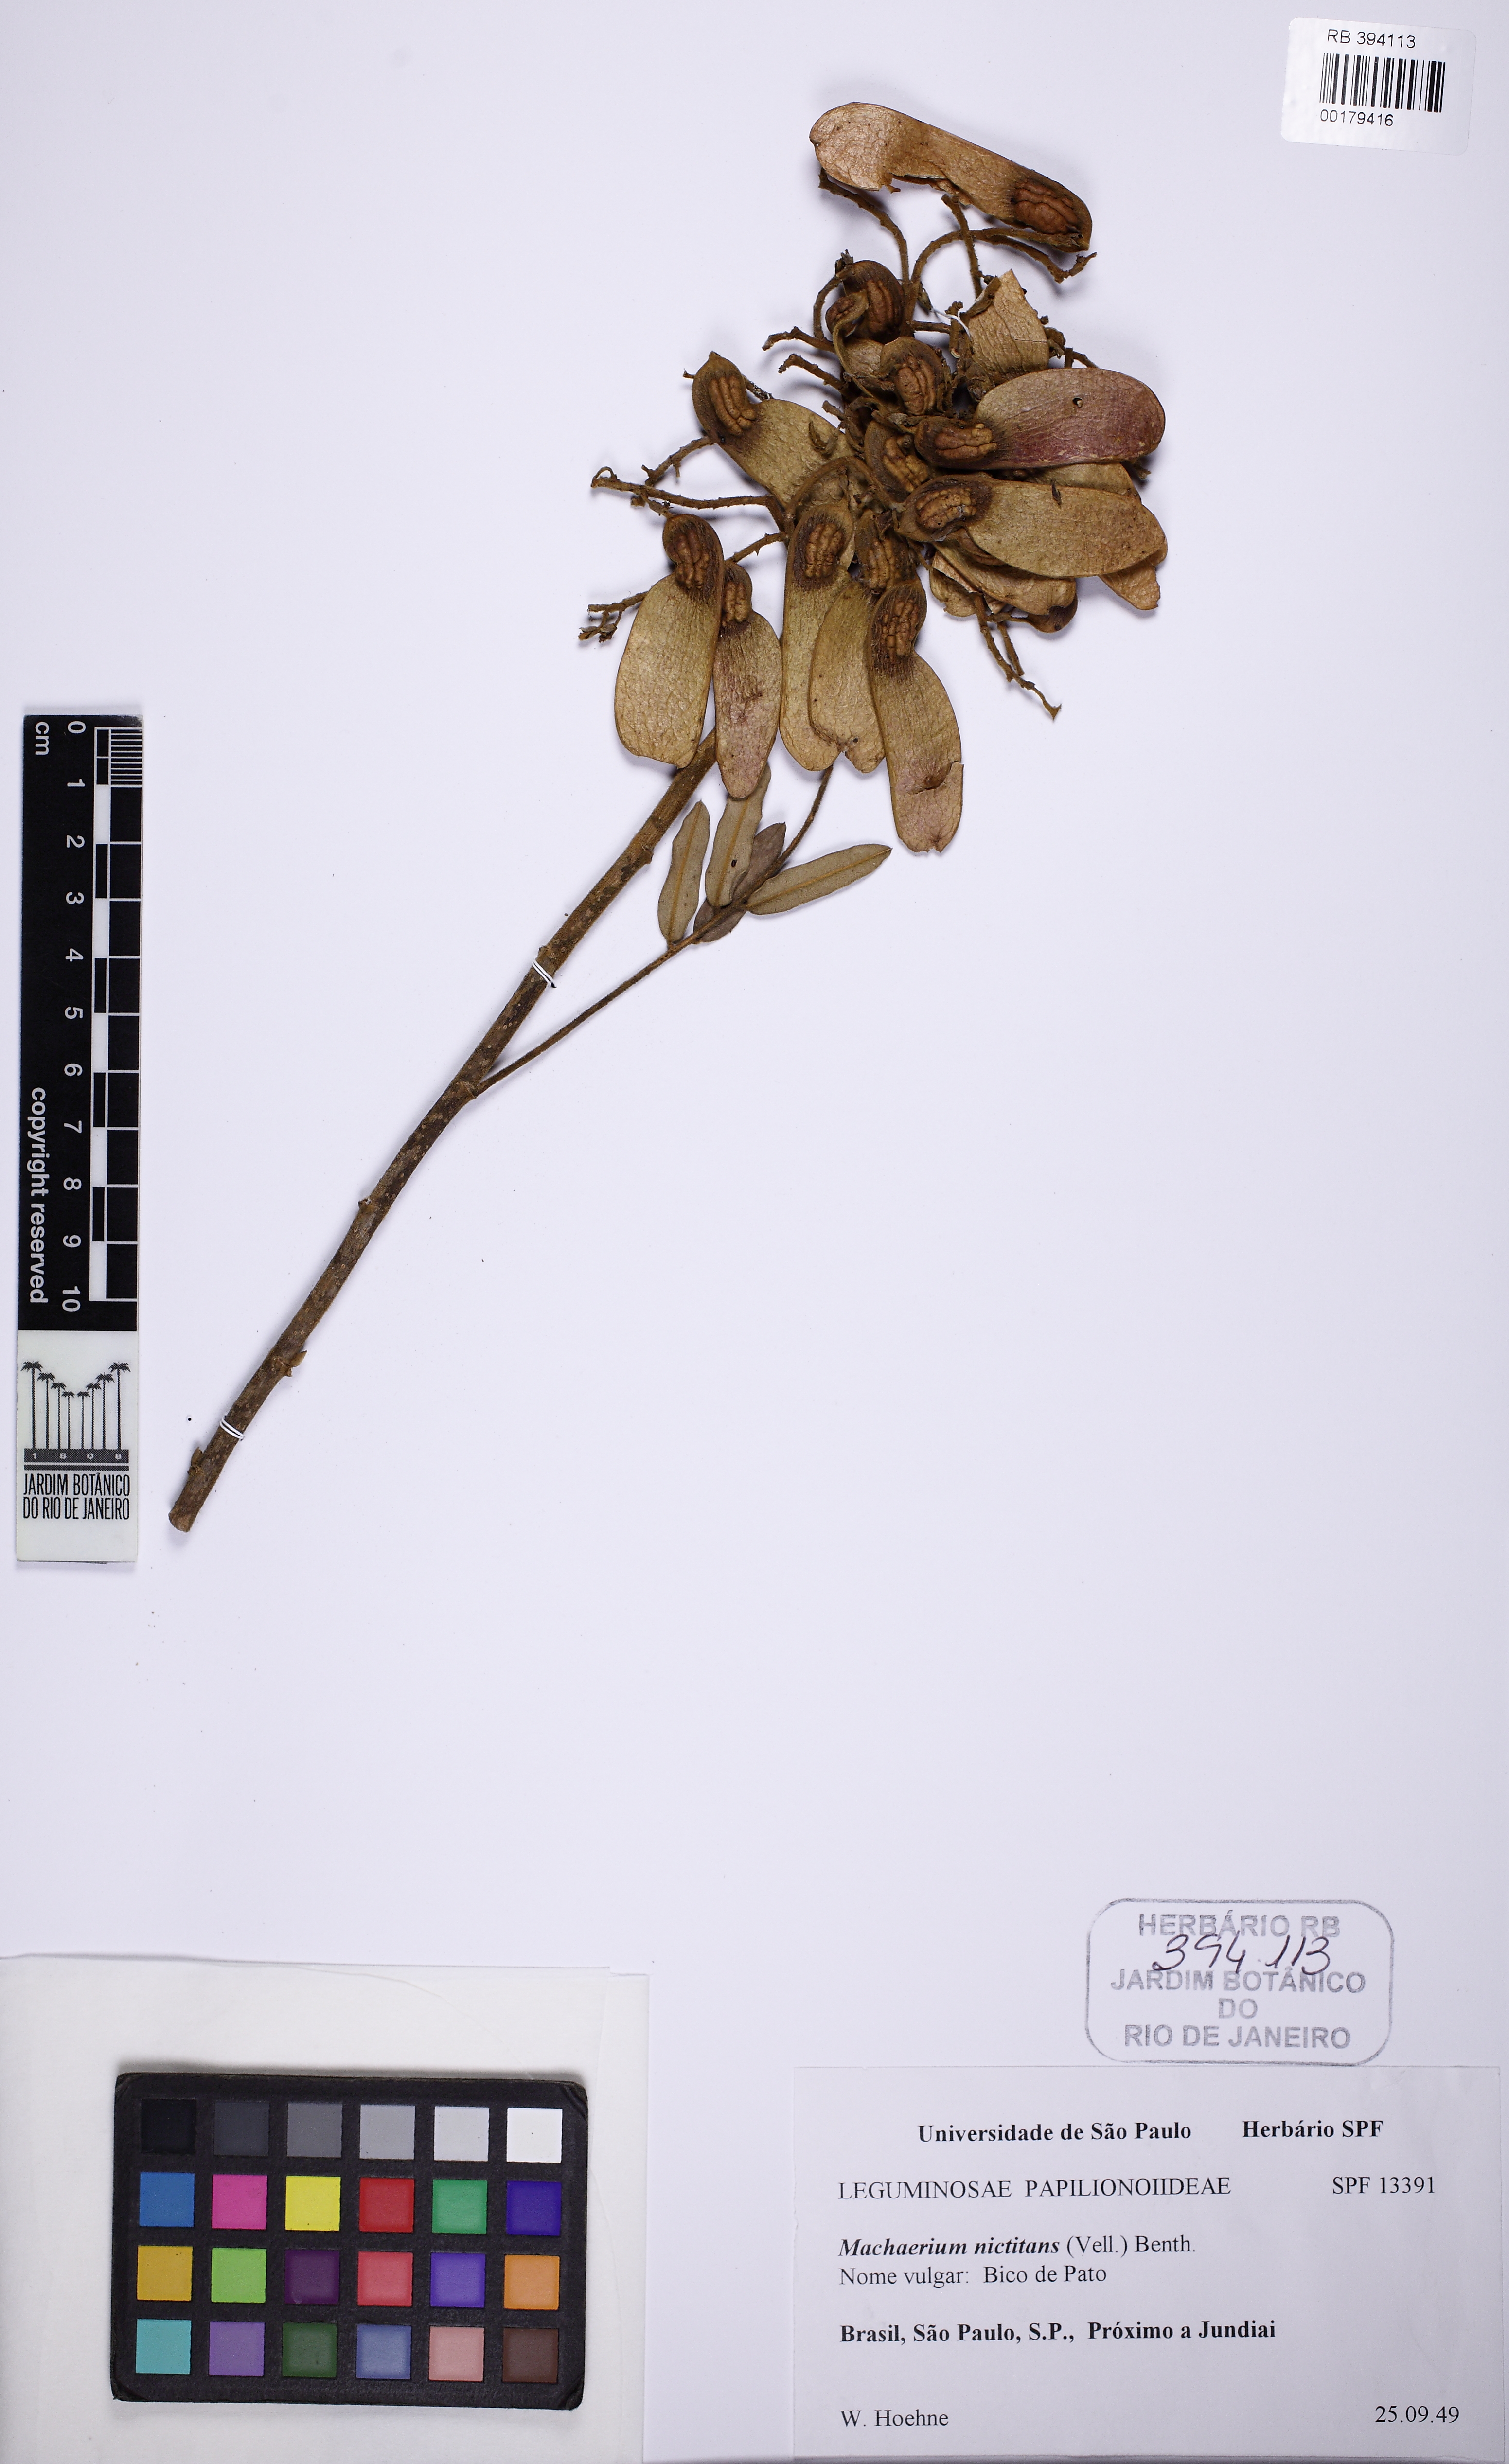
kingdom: Plantae
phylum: Tracheophyta
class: Magnoliopsida
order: Fabales
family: Fabaceae
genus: Machaerium
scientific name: Machaerium nyctitans
